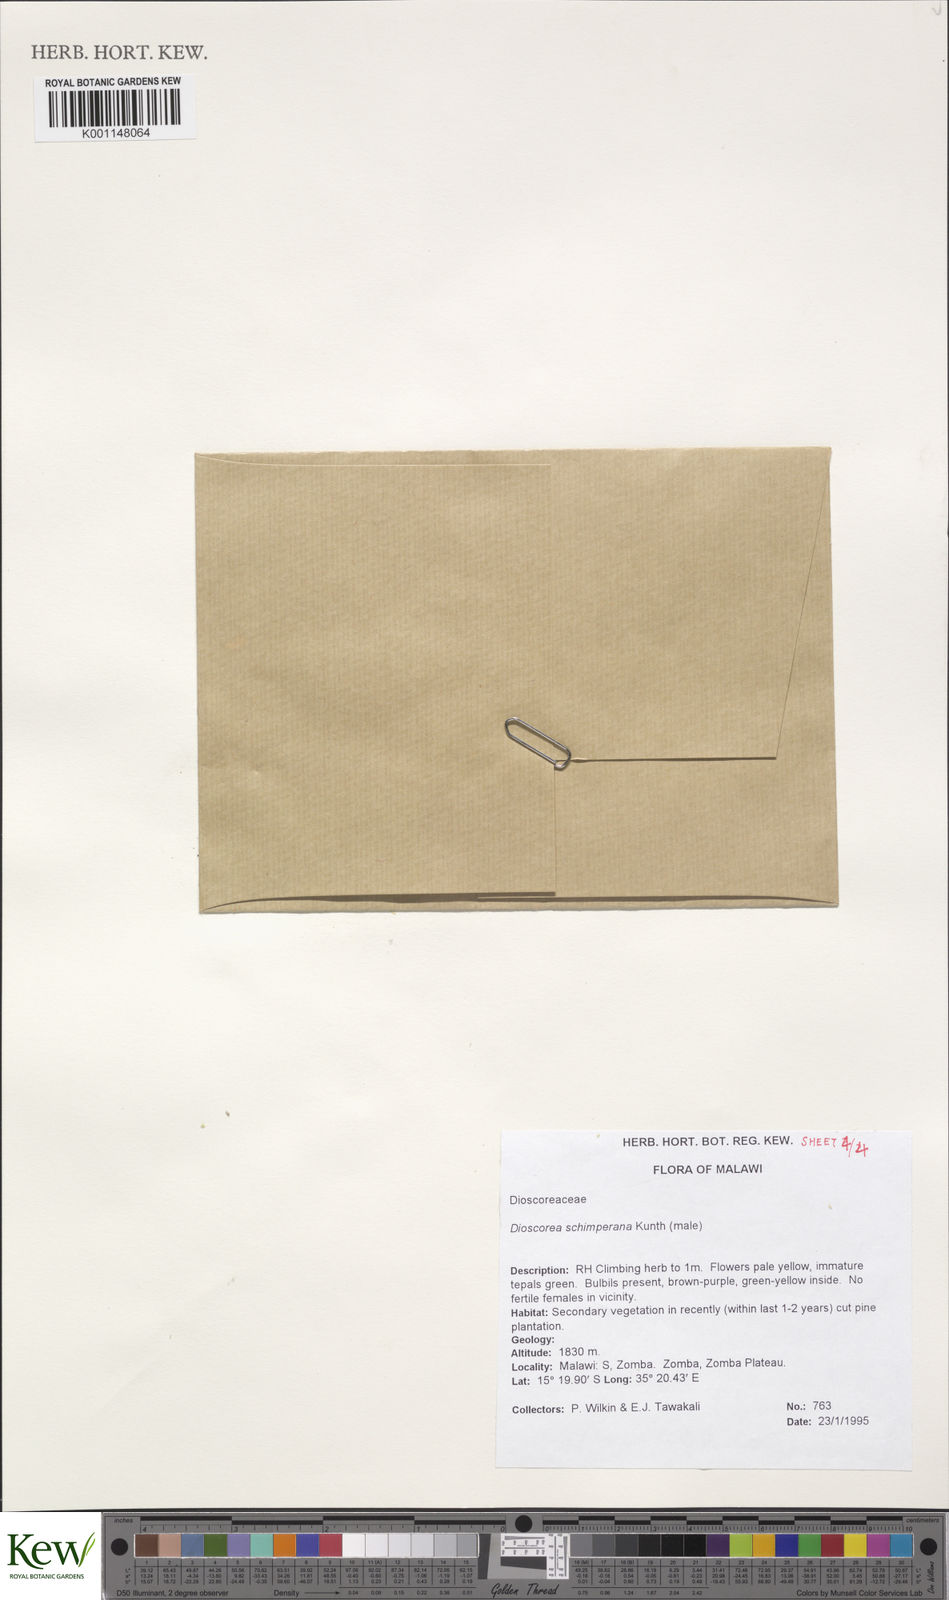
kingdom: Plantae
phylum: Tracheophyta
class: Liliopsida
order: Dioscoreales
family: Dioscoreaceae
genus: Dioscorea
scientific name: Dioscorea schimperiana
